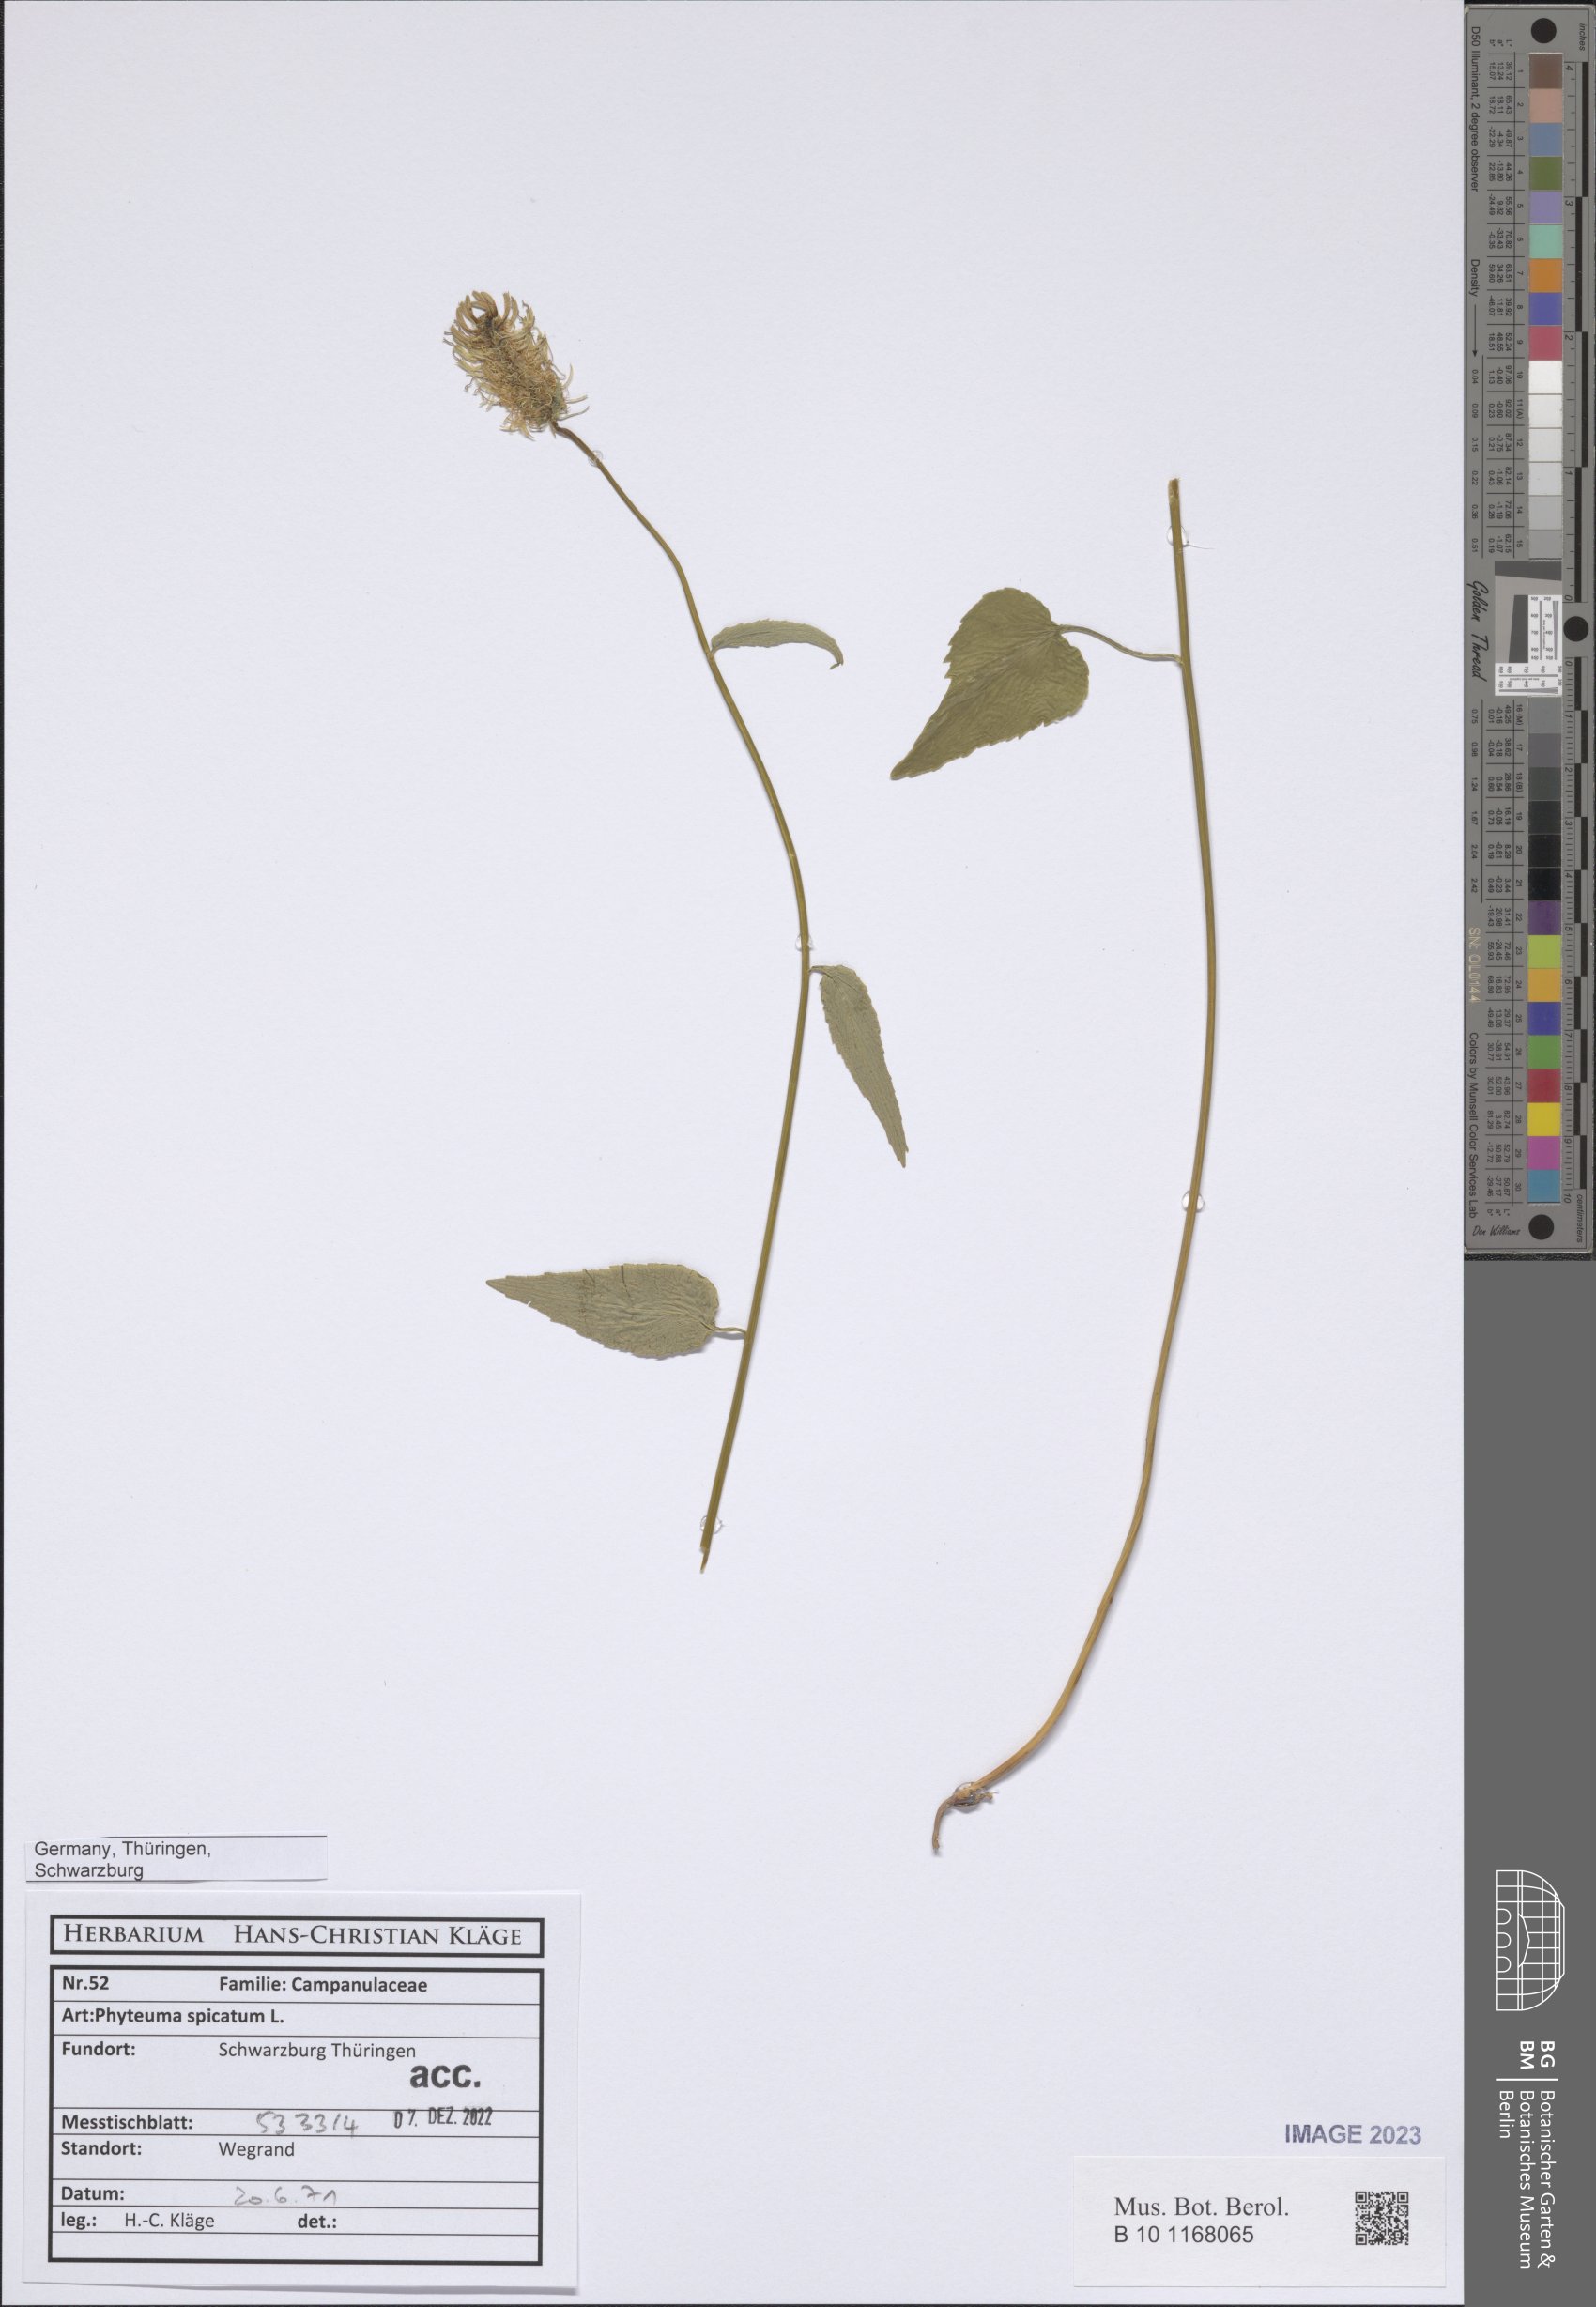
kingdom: Plantae
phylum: Tracheophyta
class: Magnoliopsida
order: Asterales
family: Campanulaceae
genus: Phyteuma
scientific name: Phyteuma spicatum
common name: Spiked rampion
